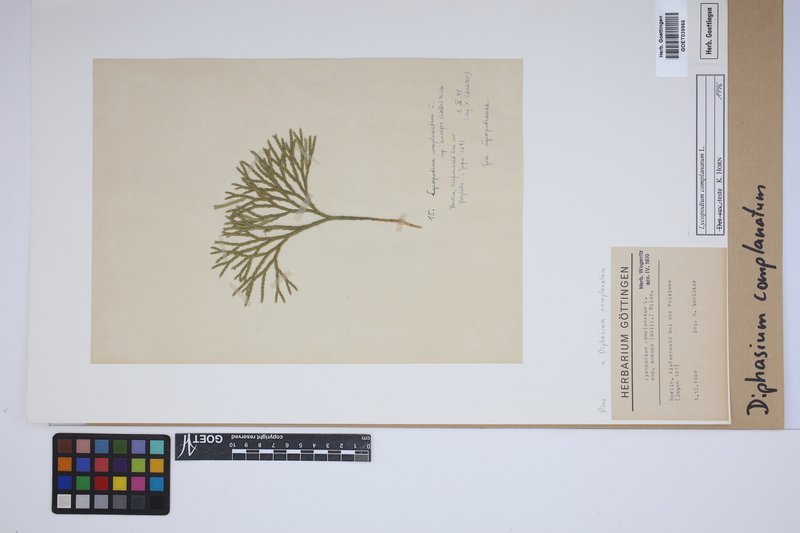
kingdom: Plantae
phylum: Tracheophyta
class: Lycopodiopsida
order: Lycopodiales
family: Lycopodiaceae
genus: Diphasiastrum
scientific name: Diphasiastrum complanatum
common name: Northern running-pine
